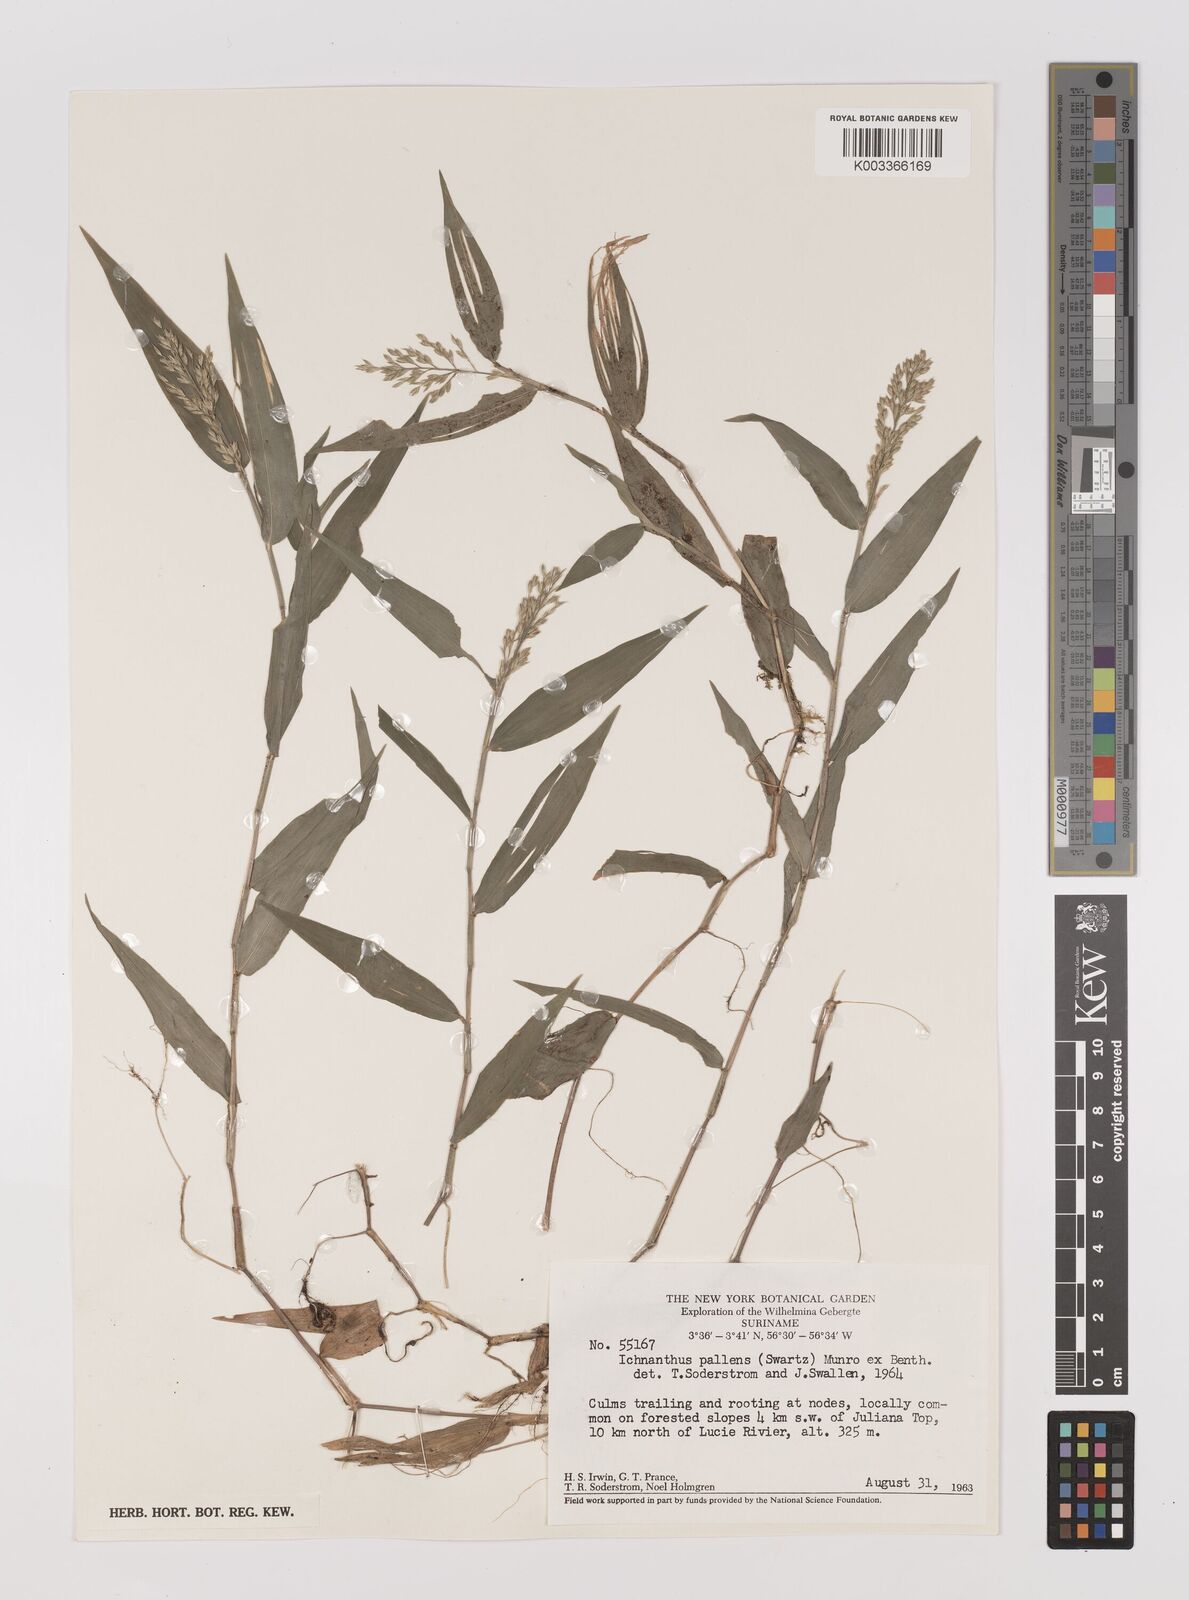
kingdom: Plantae
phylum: Tracheophyta
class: Liliopsida
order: Poales
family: Poaceae
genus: Ichnanthus
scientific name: Ichnanthus pallens
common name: Water grass
